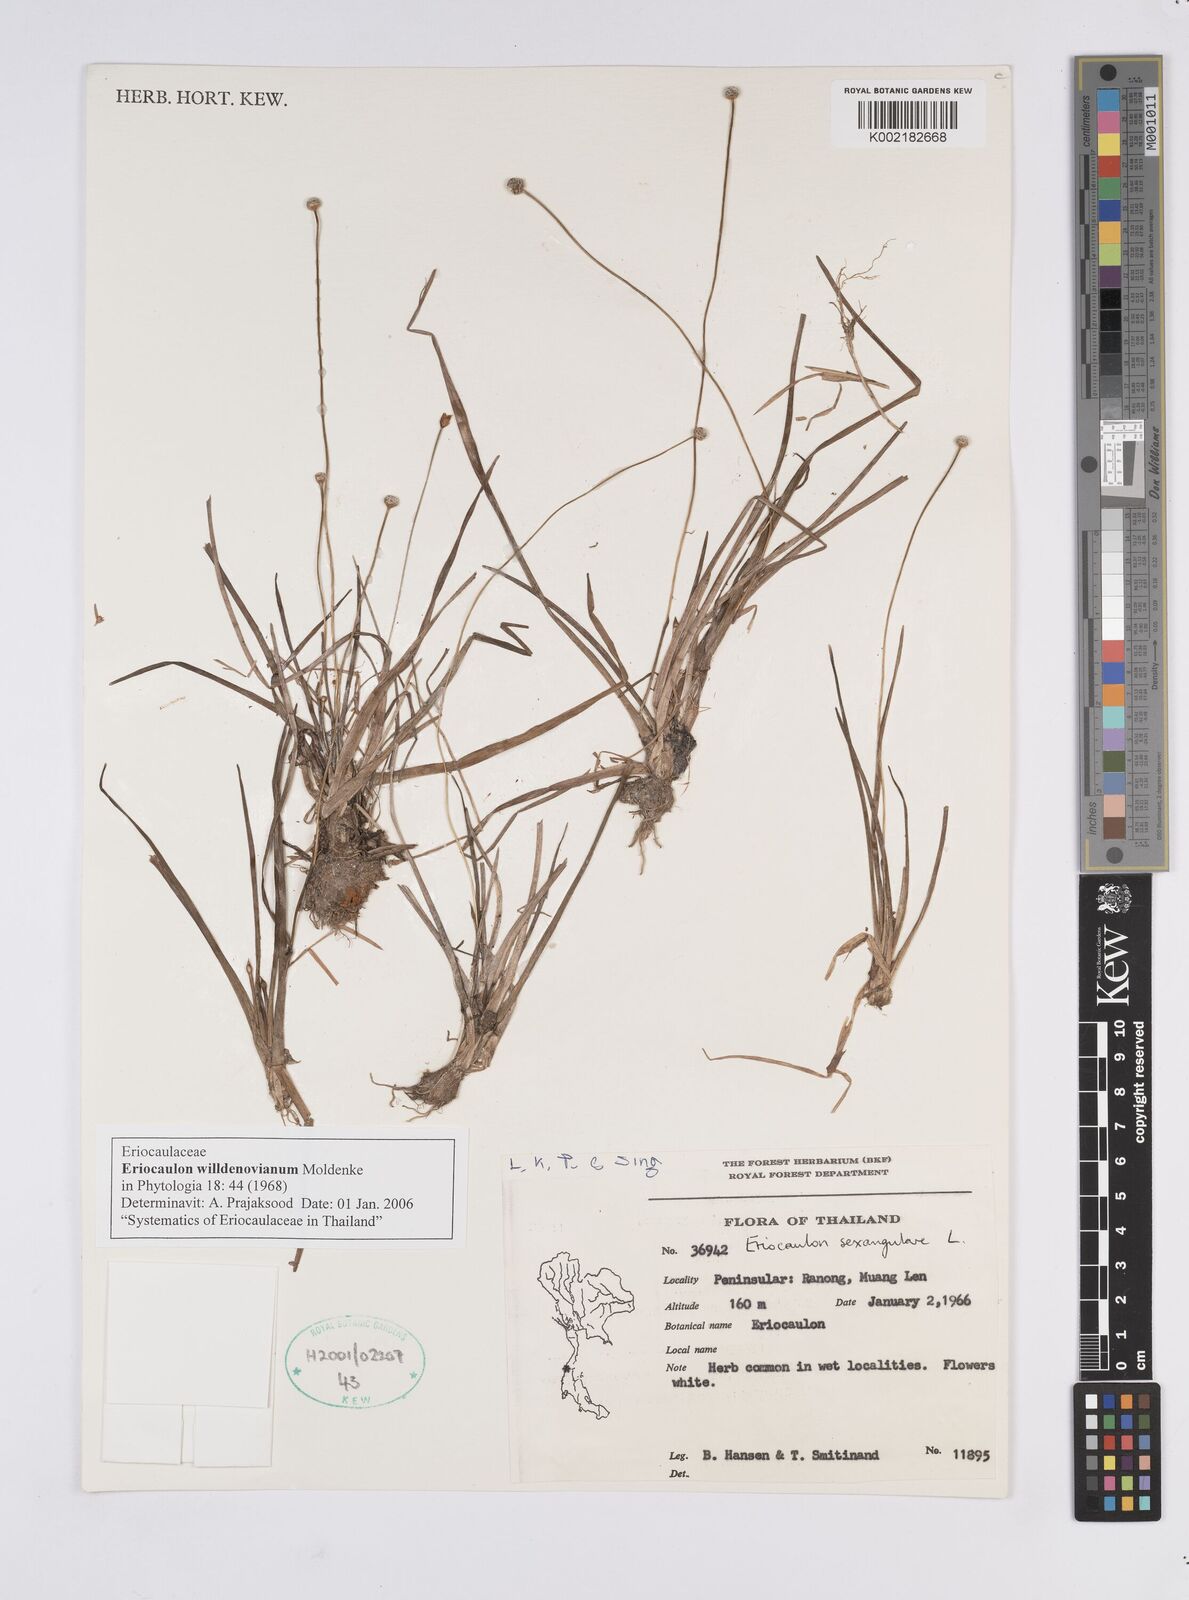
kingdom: Plantae
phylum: Tracheophyta
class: Liliopsida
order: Poales
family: Eriocaulaceae
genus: Eriocaulon
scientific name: Eriocaulon willdenovianum
